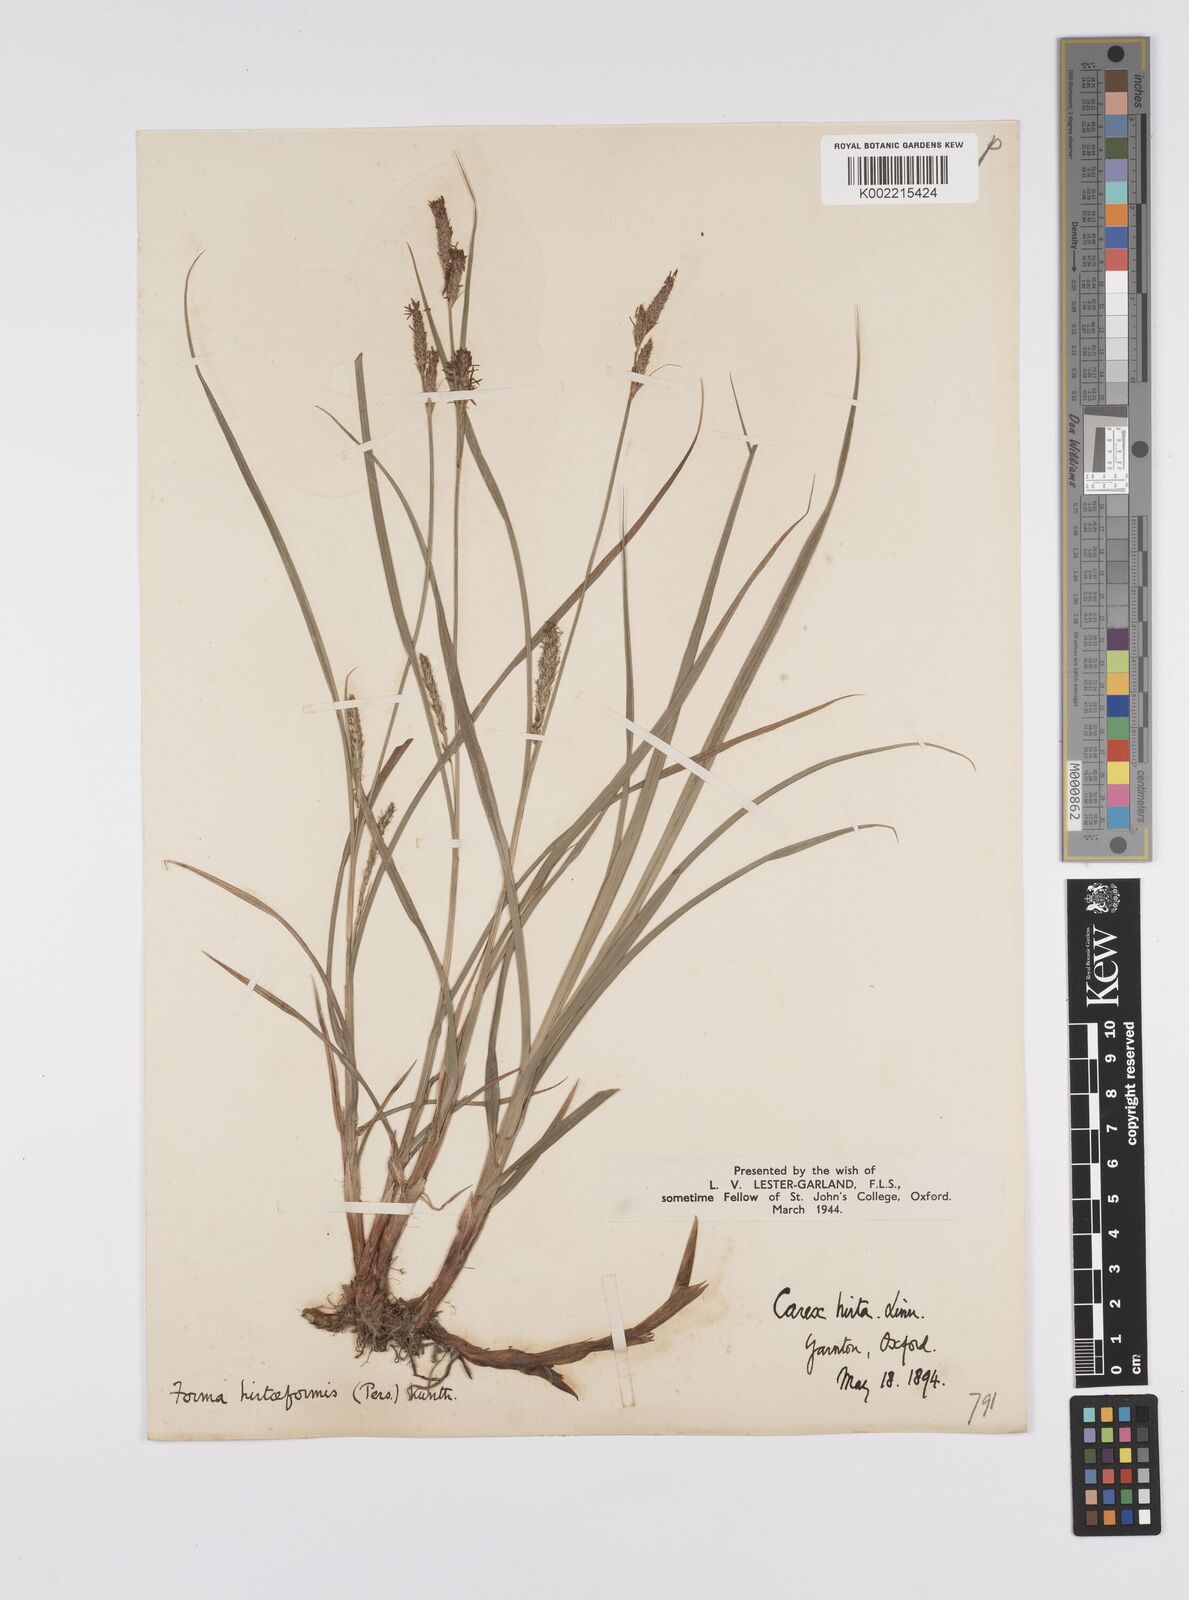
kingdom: Plantae
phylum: Tracheophyta
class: Liliopsida
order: Poales
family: Cyperaceae
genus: Carex
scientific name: Carex hirta
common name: Hairy sedge
